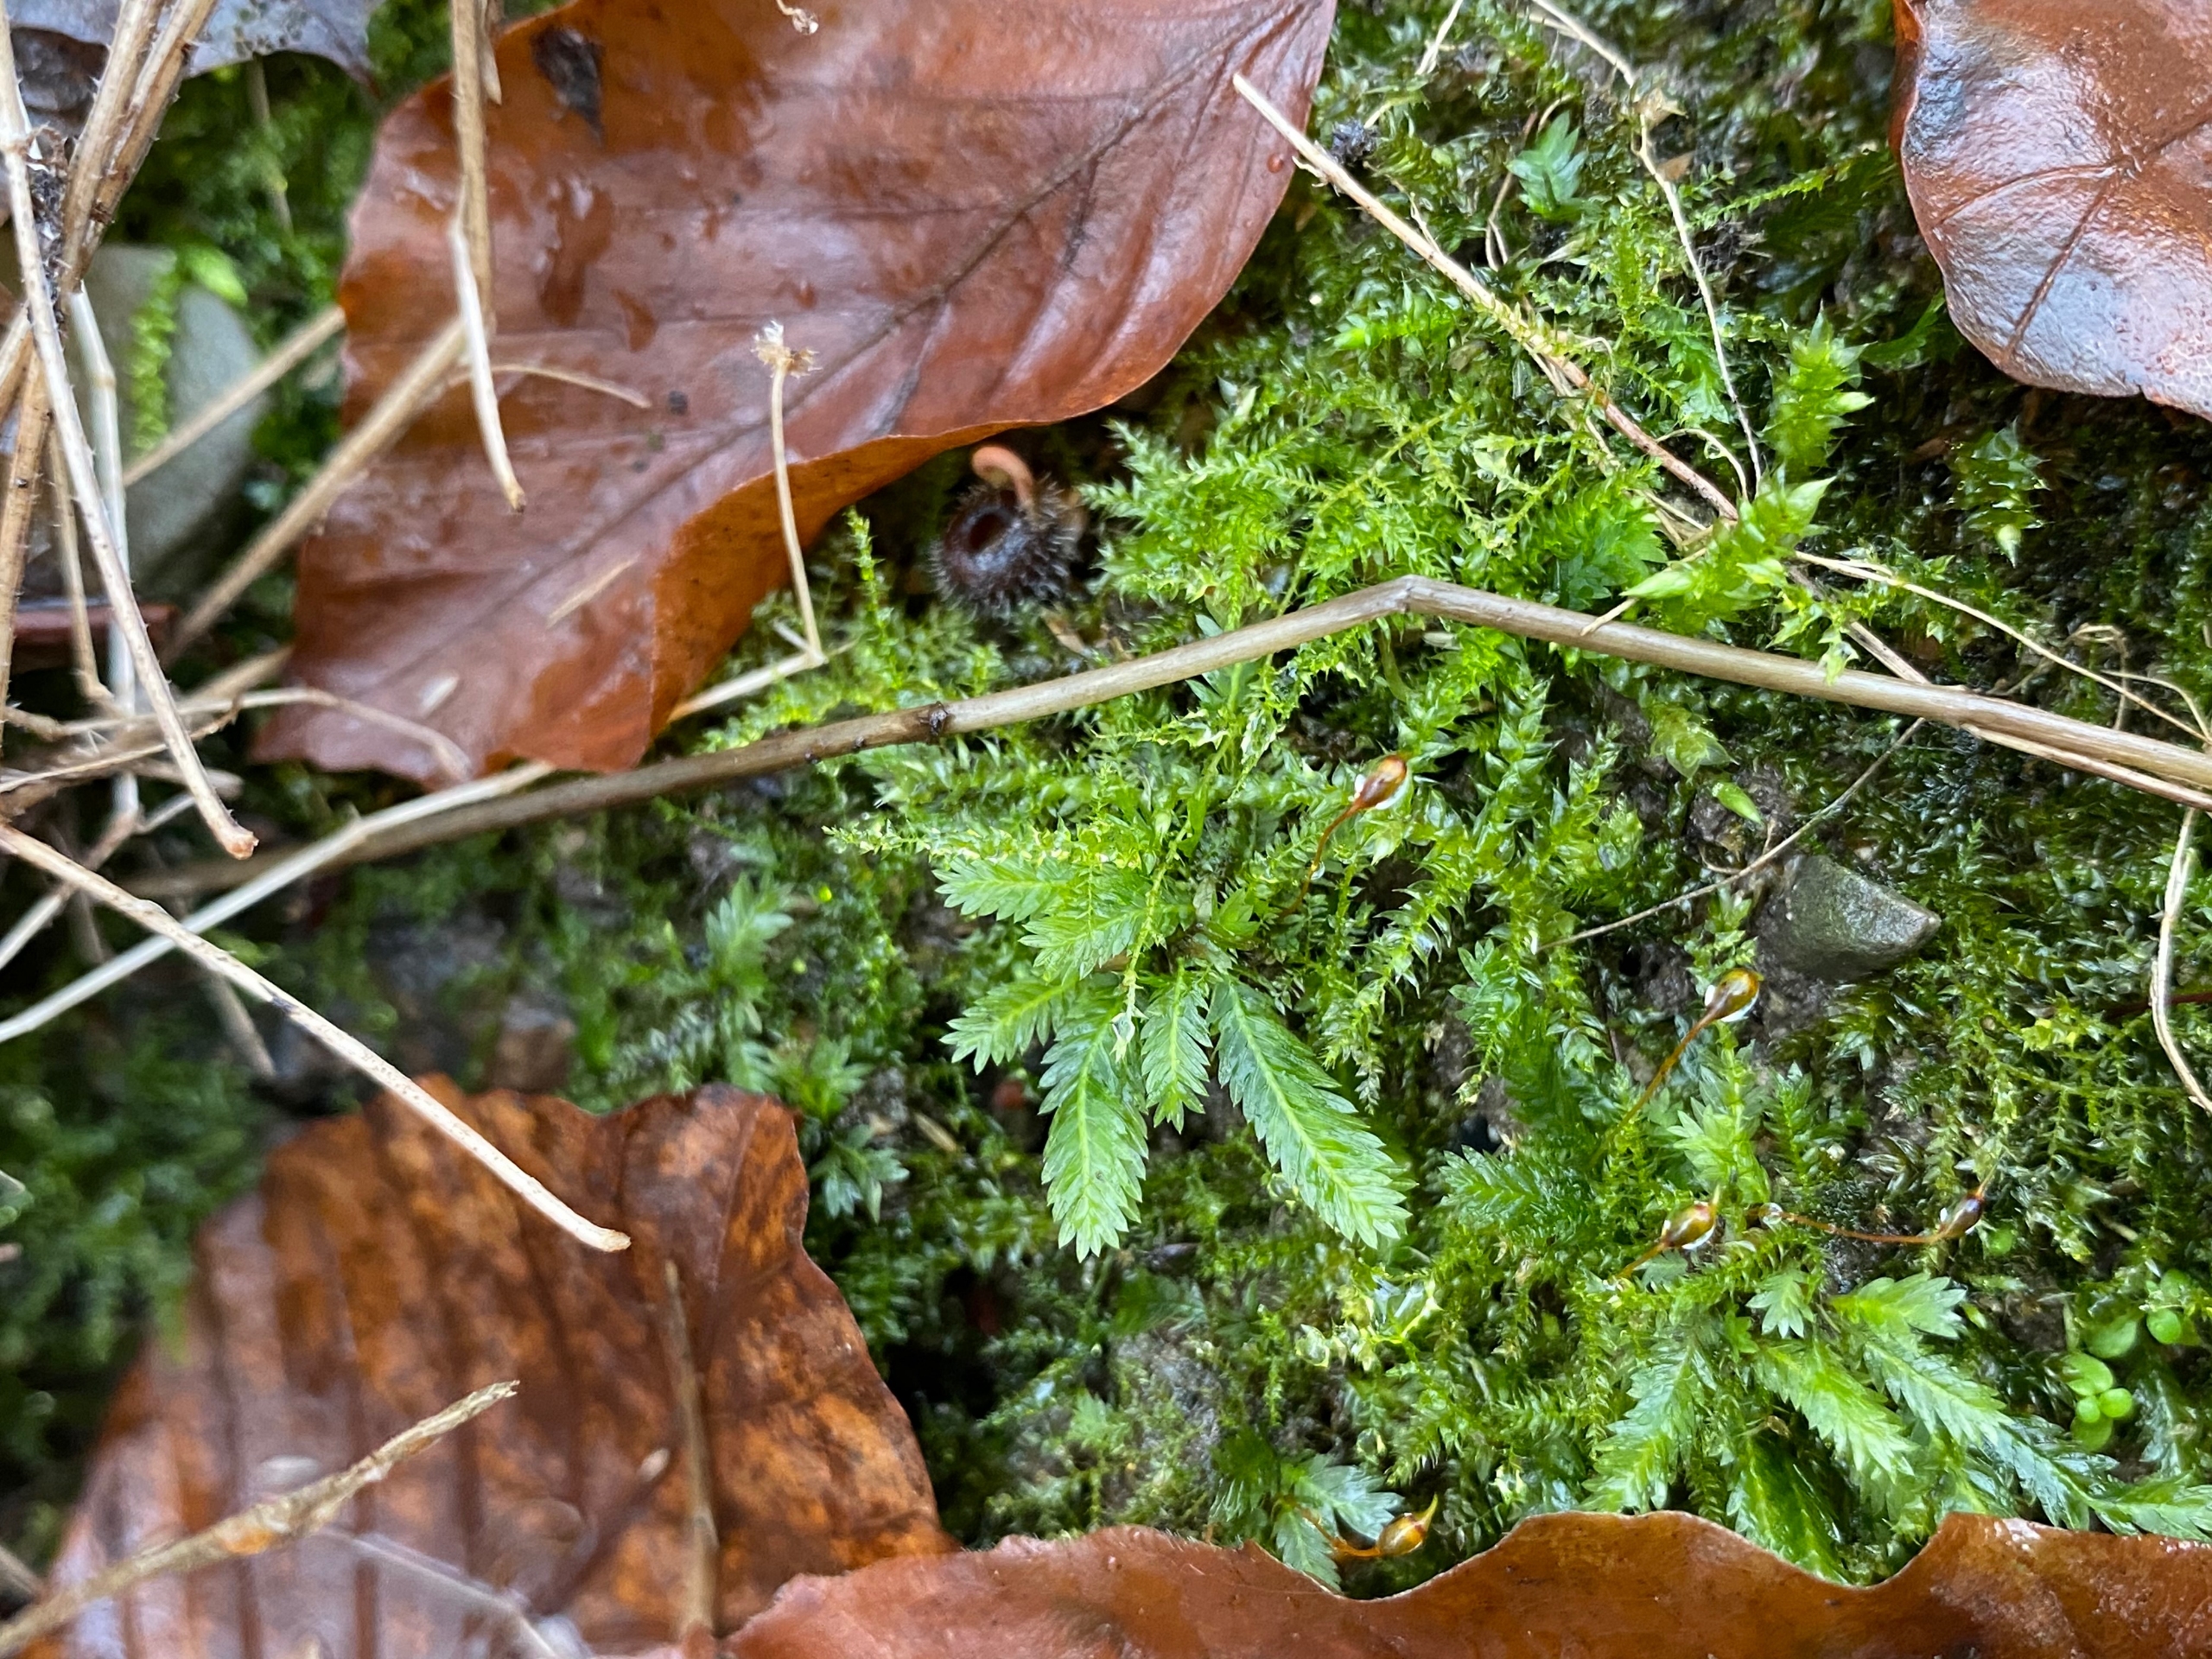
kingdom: Plantae
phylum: Bryophyta
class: Bryopsida
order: Dicranales
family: Fissidentaceae
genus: Fissidens
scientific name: Fissidens taxifolius
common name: Taksbladet rademos
